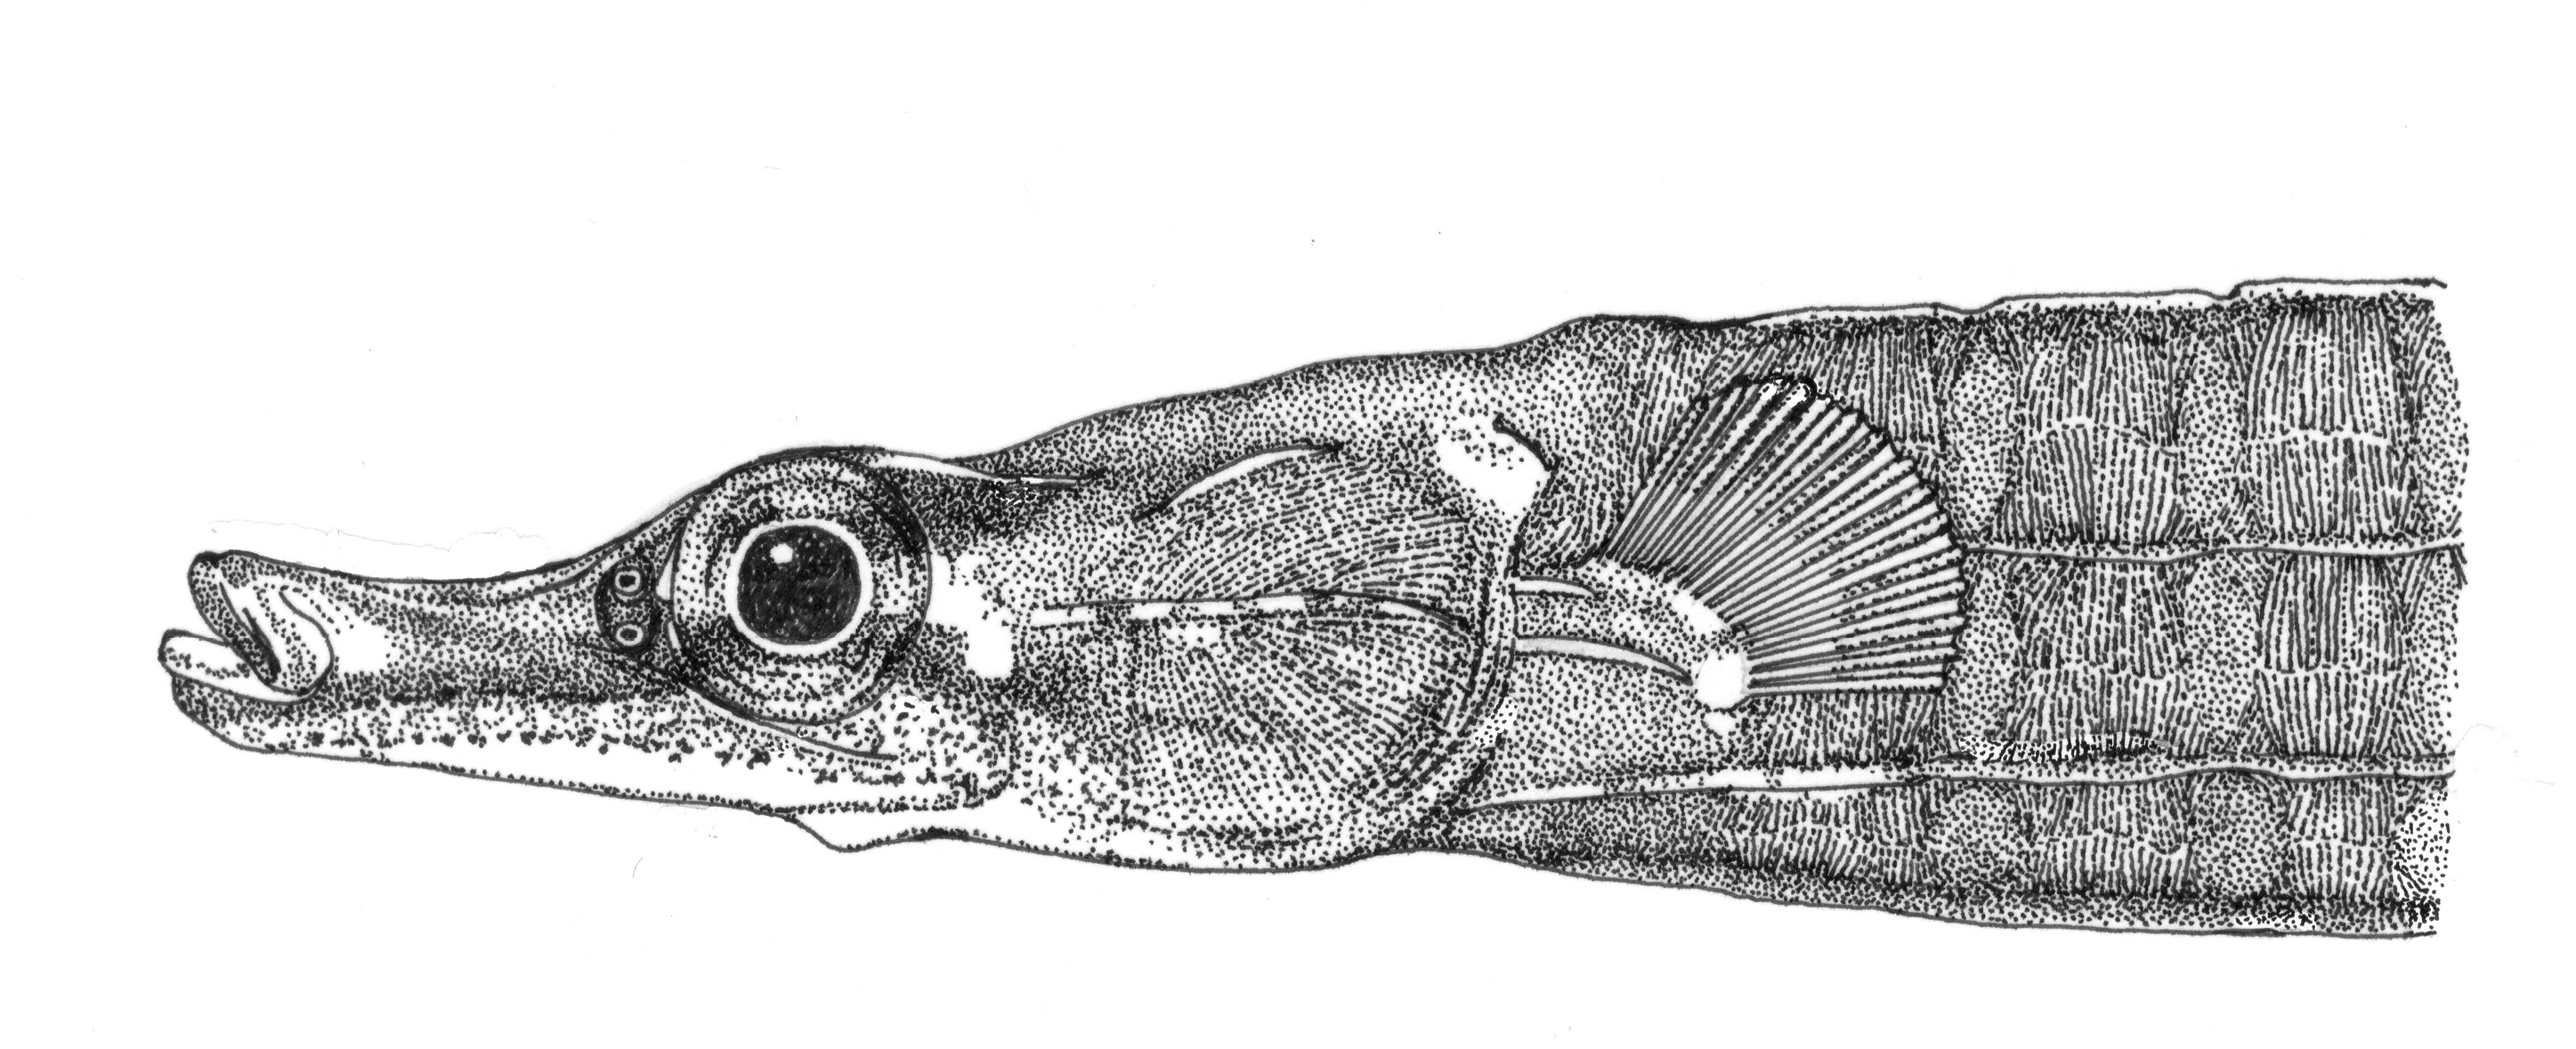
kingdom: Animalia
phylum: Chordata
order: Syngnathiformes
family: Syngnathidae
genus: Hippichthys
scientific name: Hippichthys
